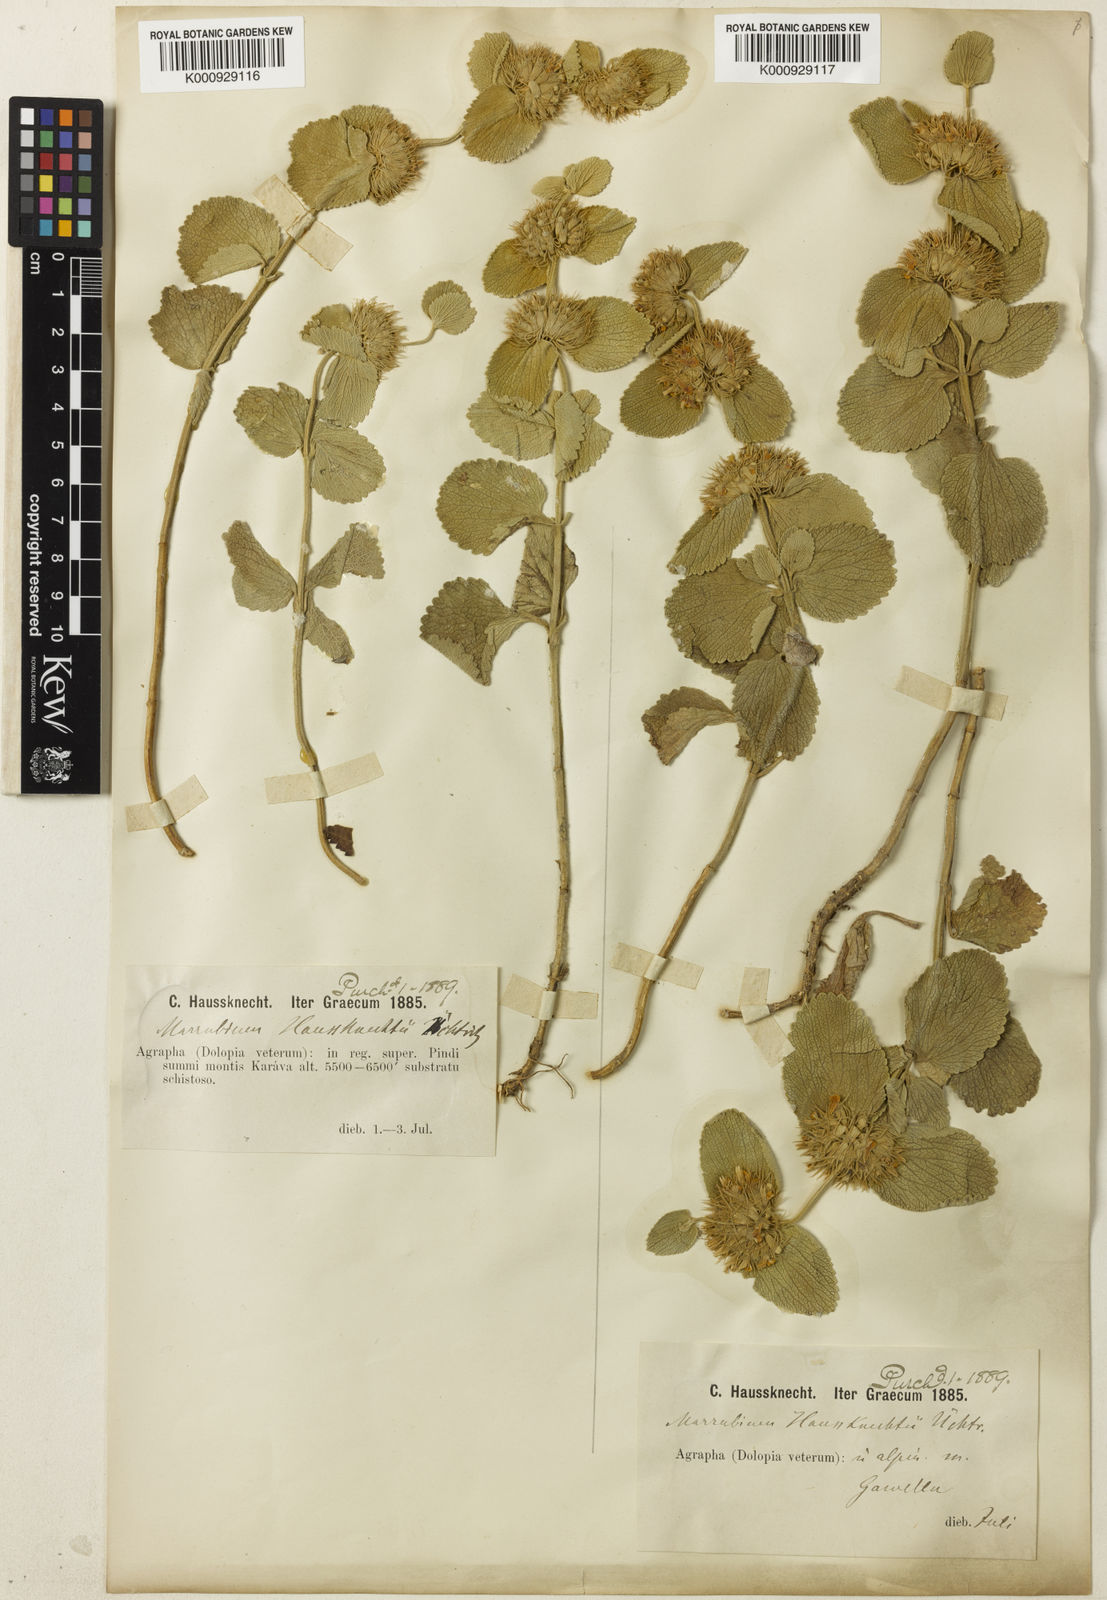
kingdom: Plantae
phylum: Tracheophyta
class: Magnoliopsida
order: Lamiales
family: Lamiaceae
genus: Marrubium
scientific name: Marrubium
